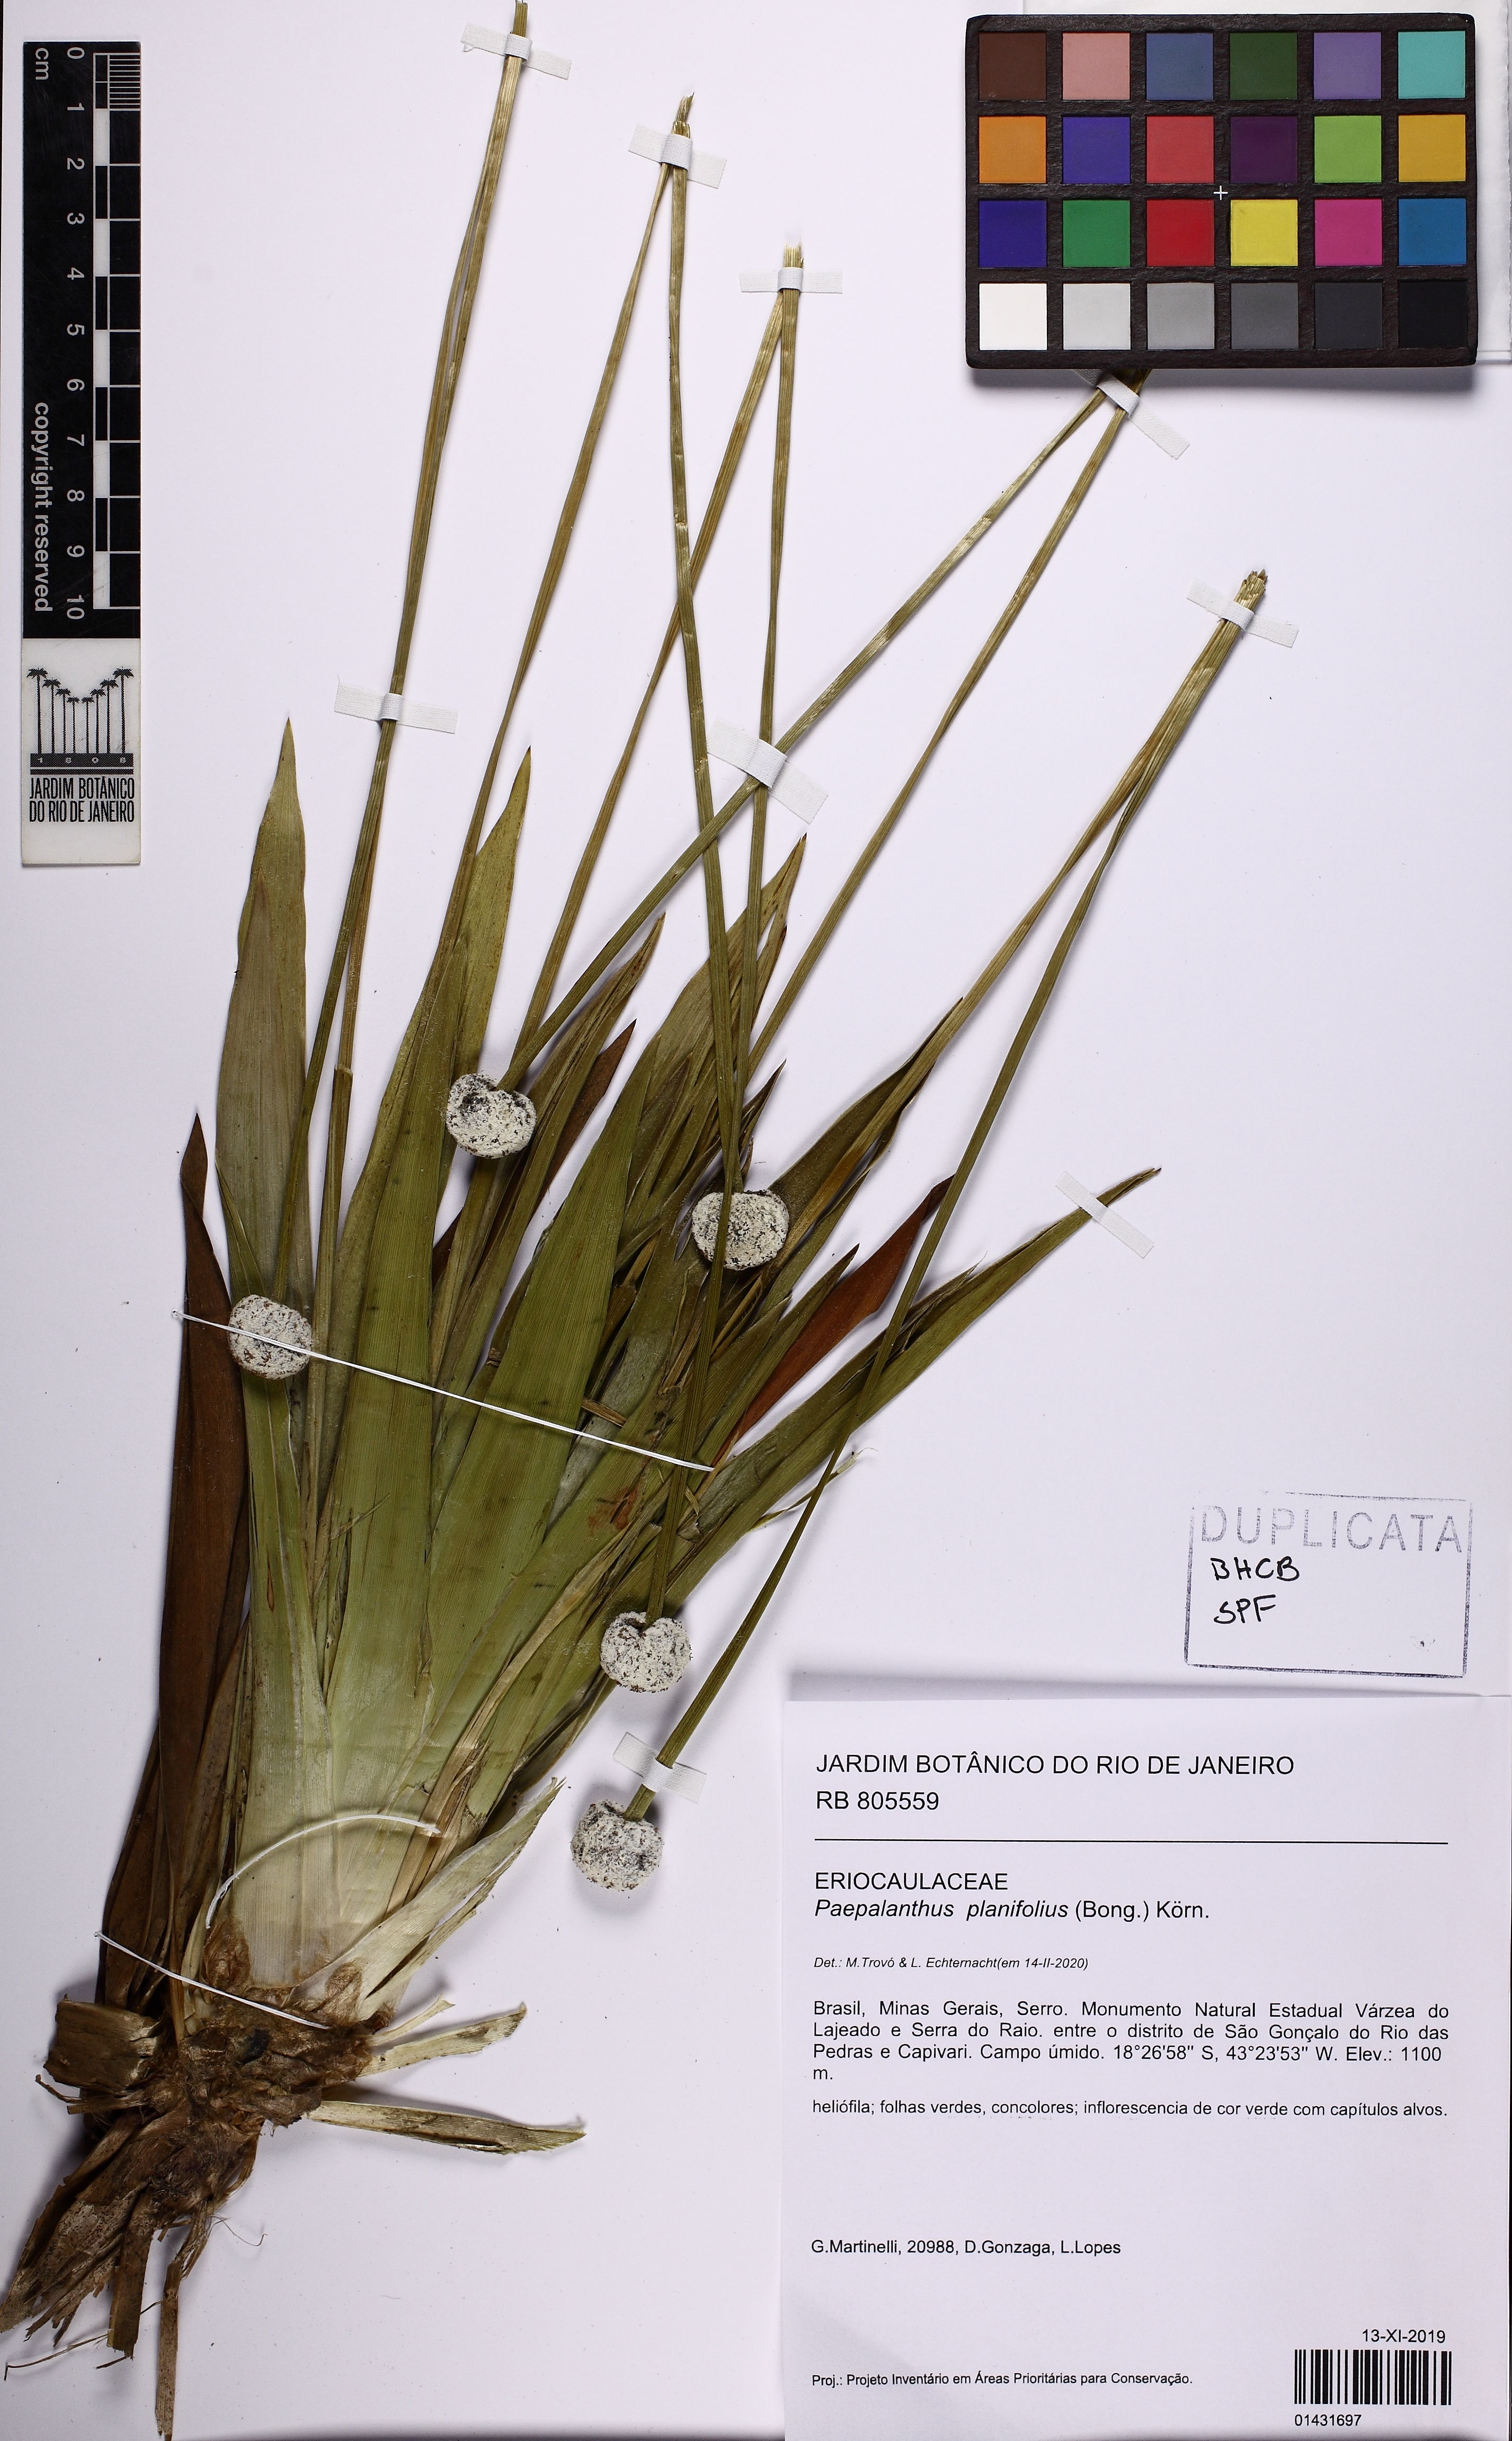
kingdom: Plantae
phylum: Tracheophyta
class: Liliopsida
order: Poales
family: Eriocaulaceae
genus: Paepalanthus
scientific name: Paepalanthus planifolius
